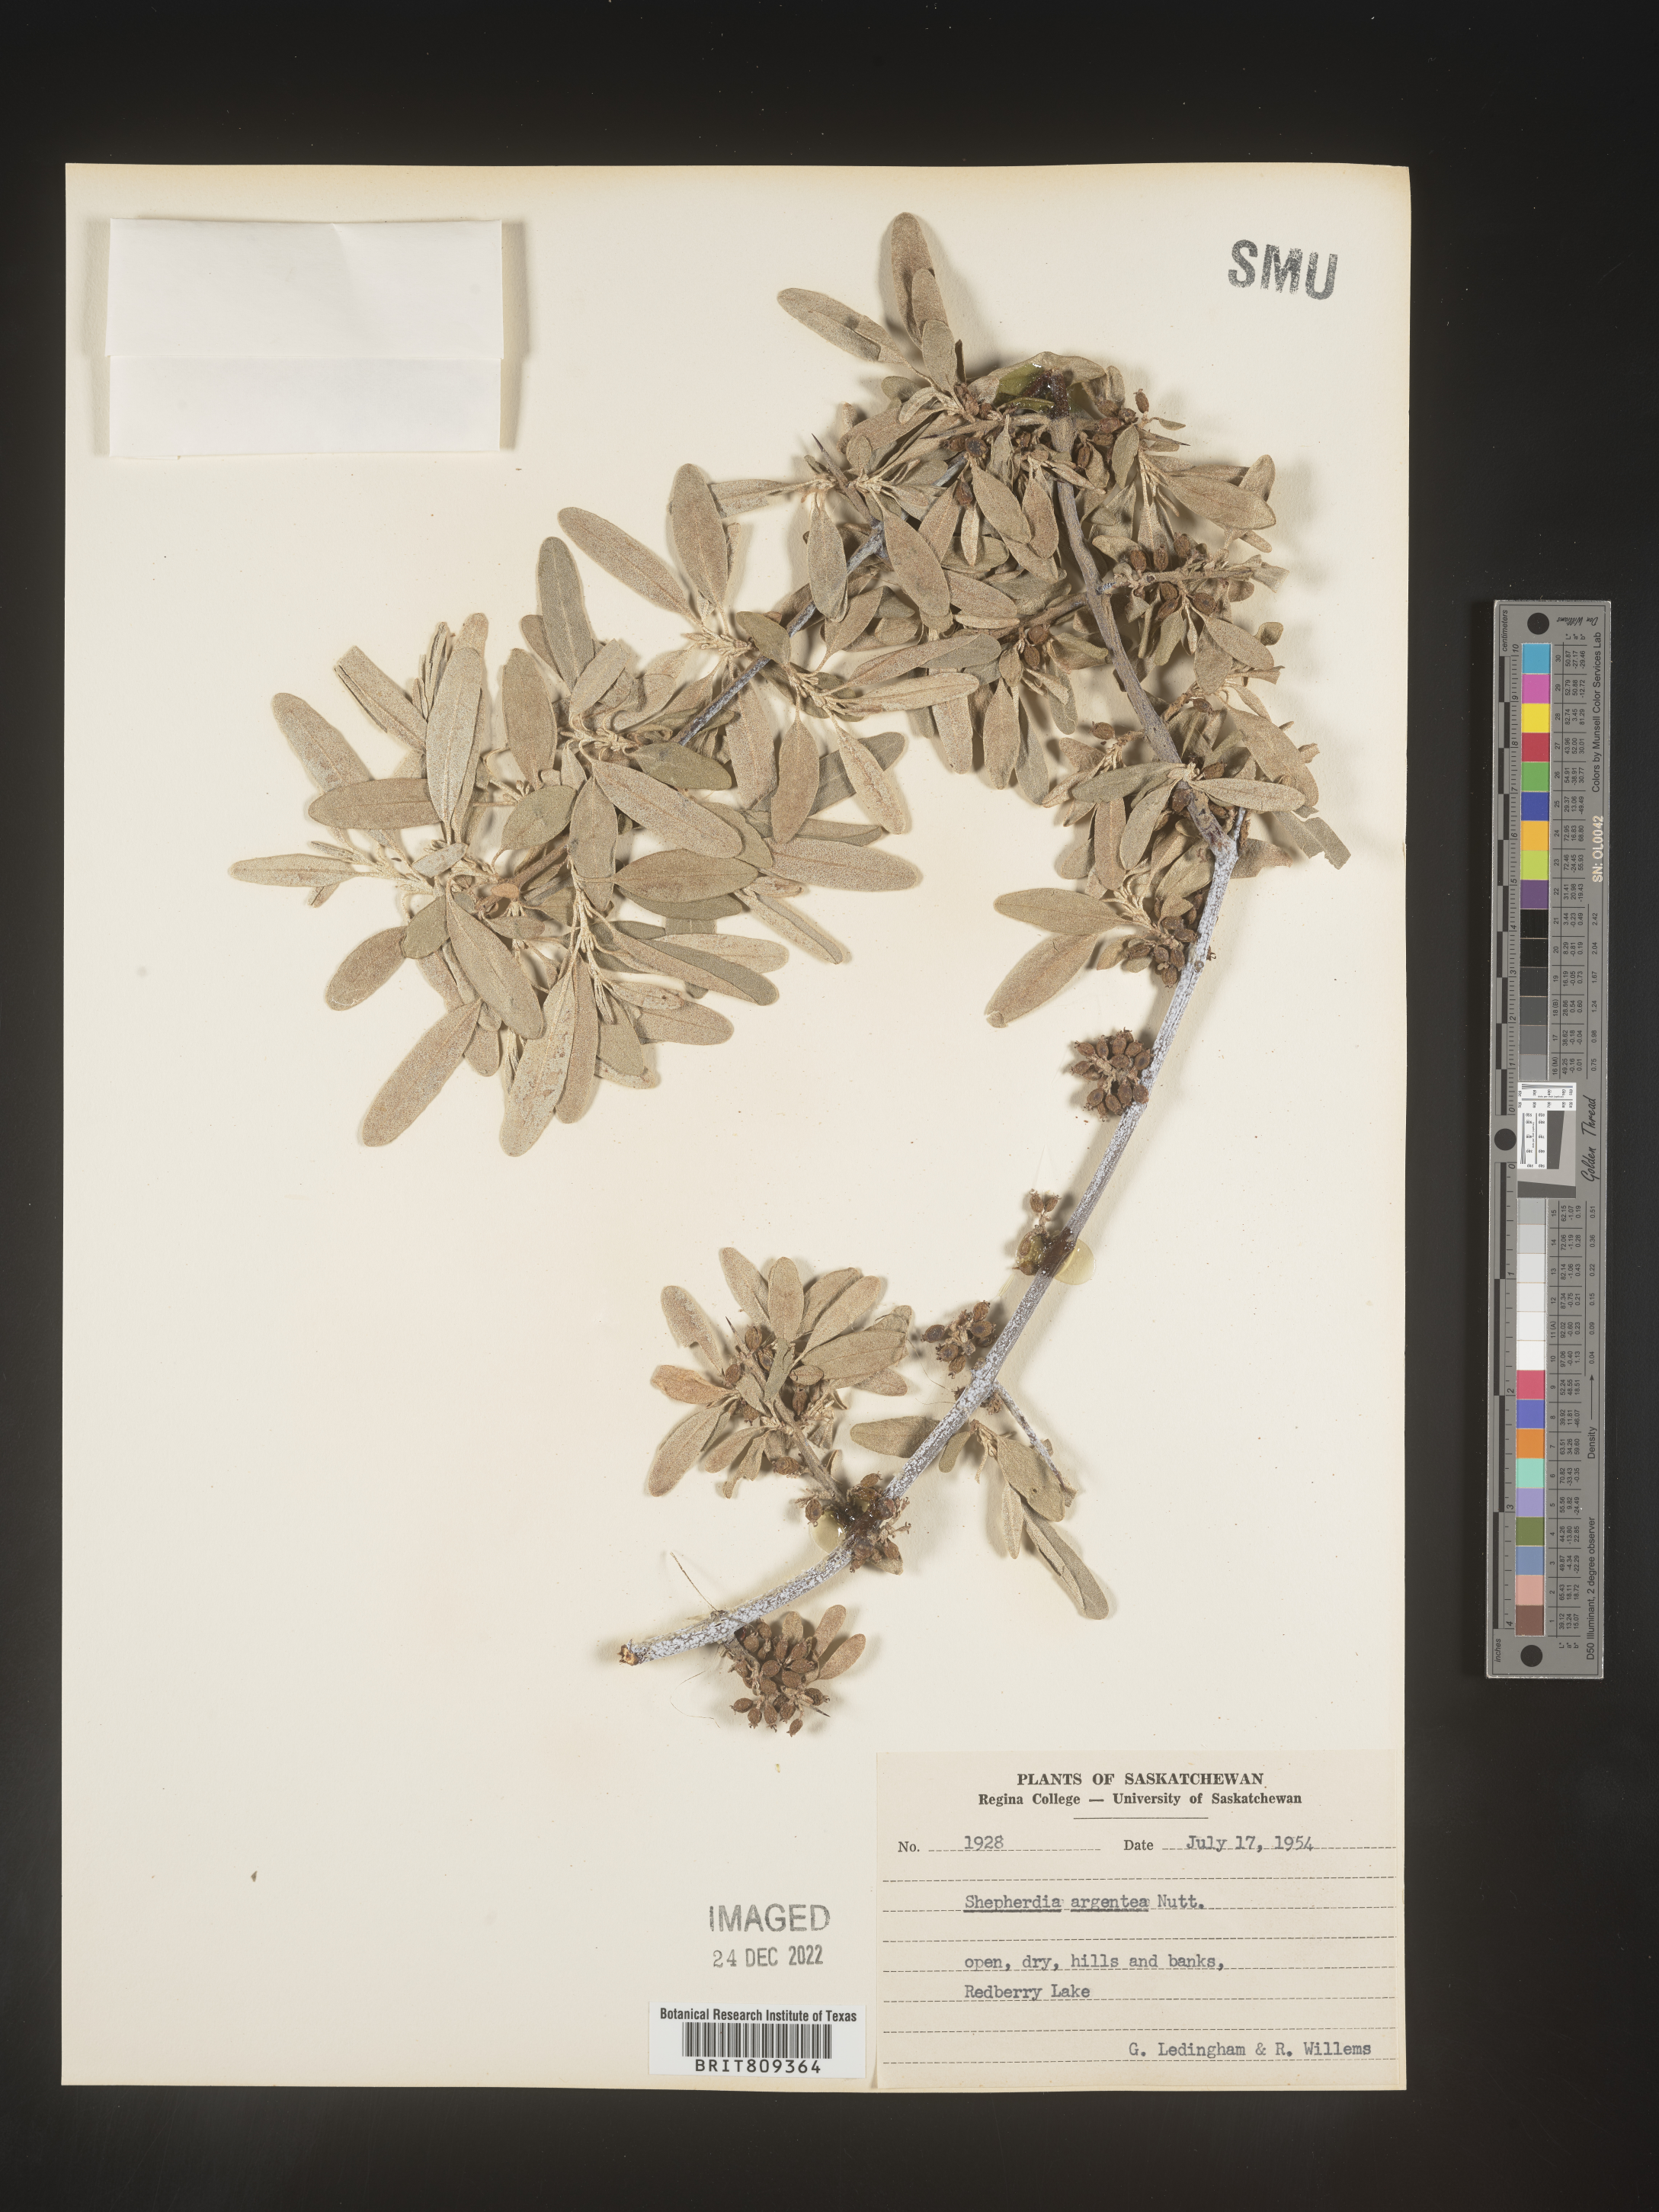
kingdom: Plantae
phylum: Tracheophyta
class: Magnoliopsida
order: Rosales
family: Elaeagnaceae
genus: Shepherdia
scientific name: Shepherdia argentea
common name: Silver buffaloberry
